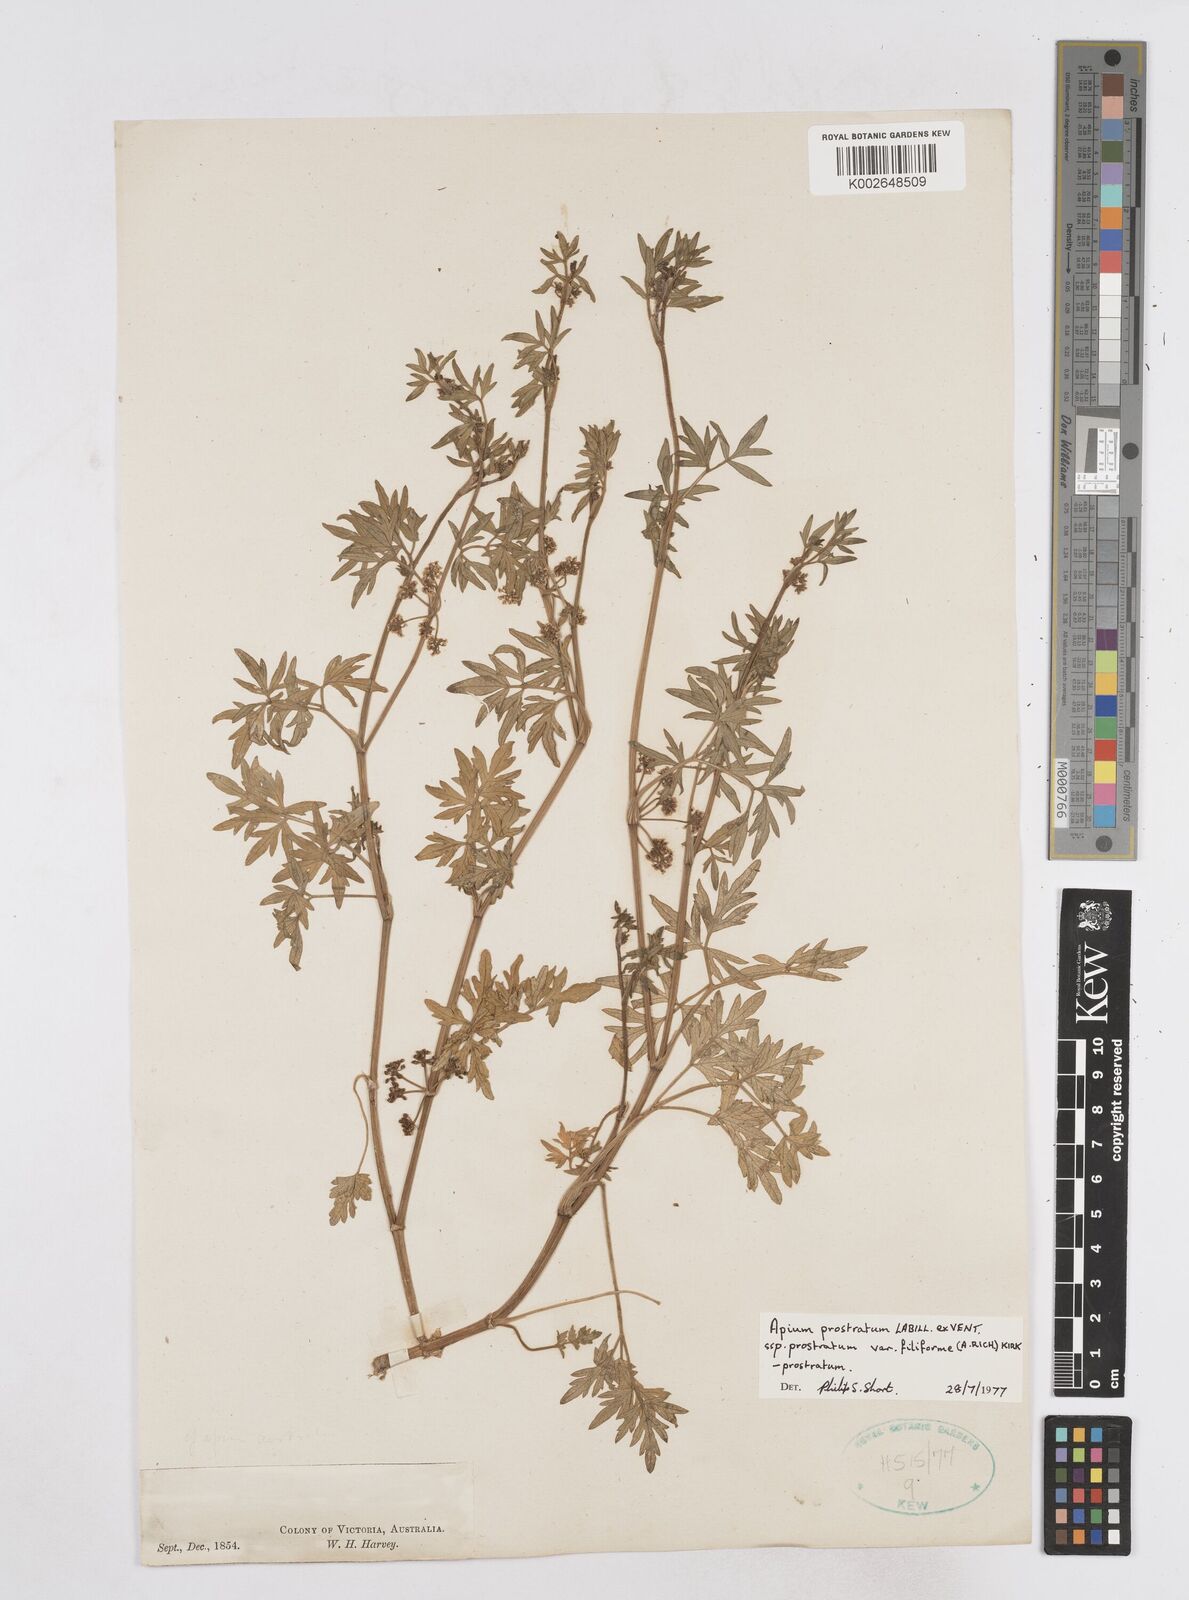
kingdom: Plantae
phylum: Tracheophyta
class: Magnoliopsida
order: Apiales
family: Apiaceae
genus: Apium
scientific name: Apium prostratum
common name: Prostrate marshwort
